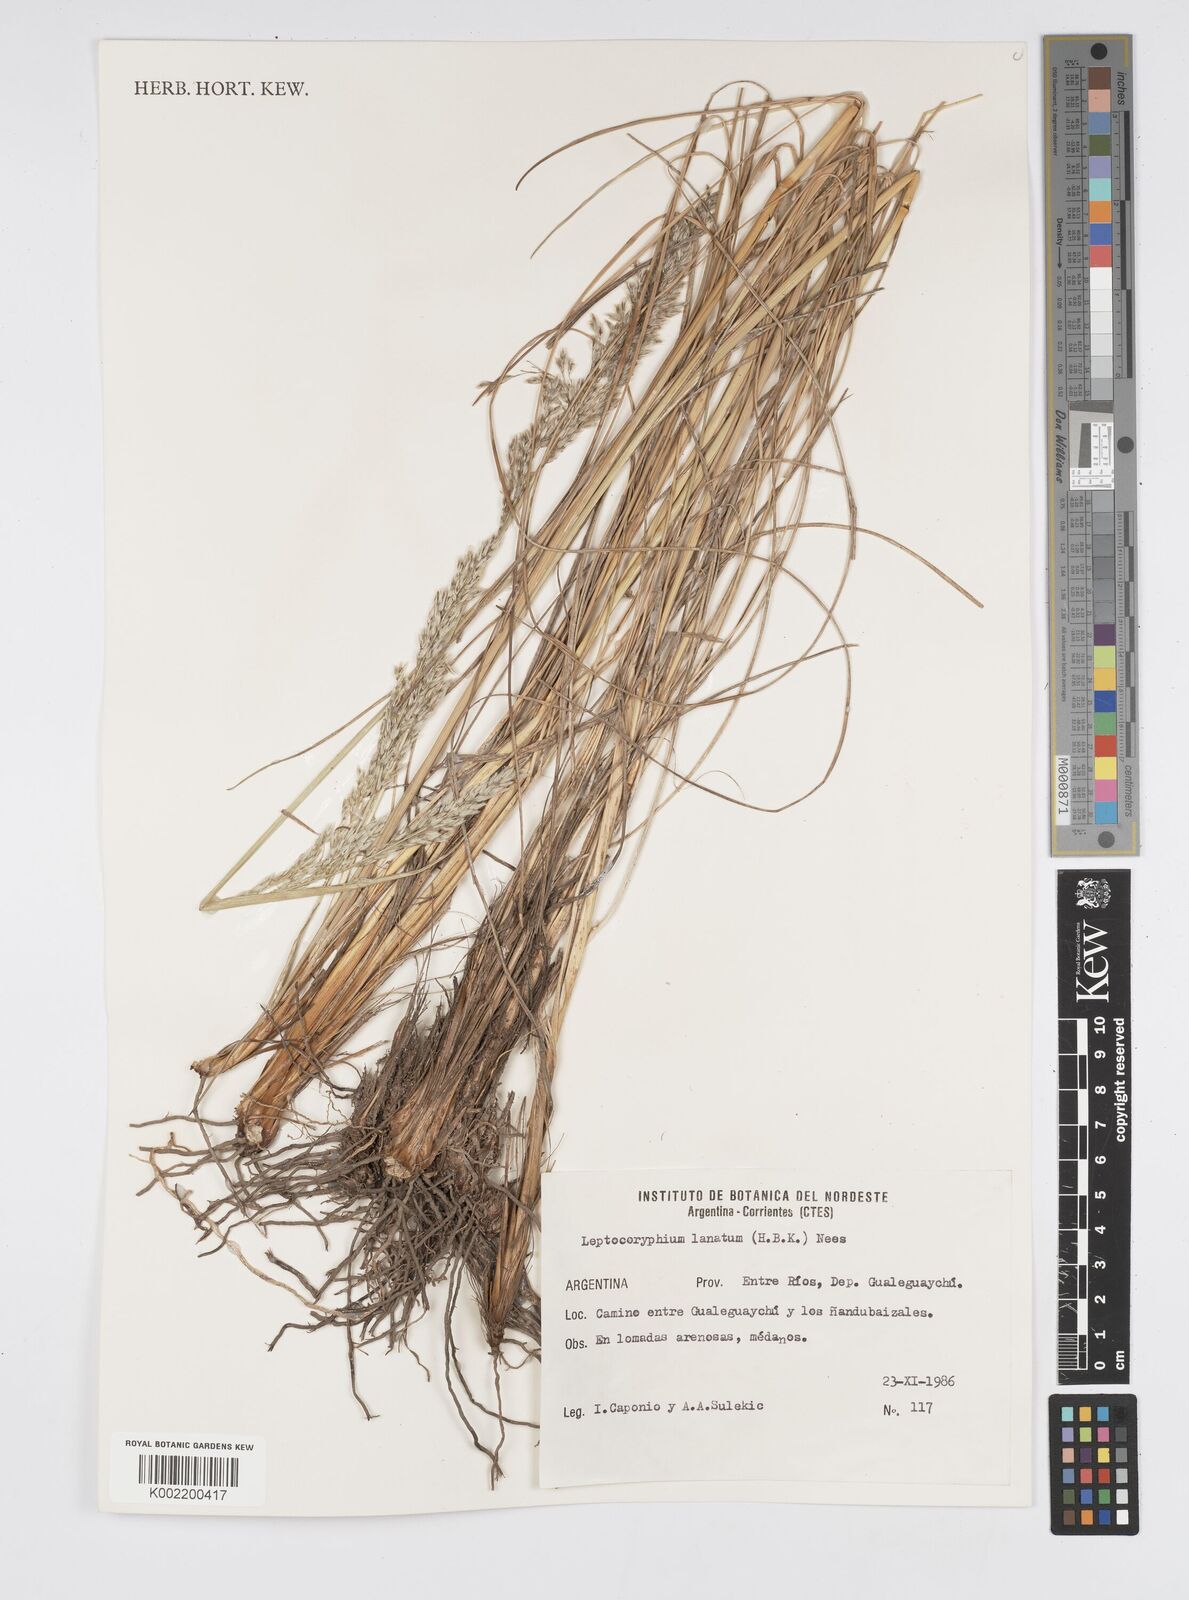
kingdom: Plantae
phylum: Tracheophyta
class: Liliopsida
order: Poales
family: Poaceae
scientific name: Poaceae
